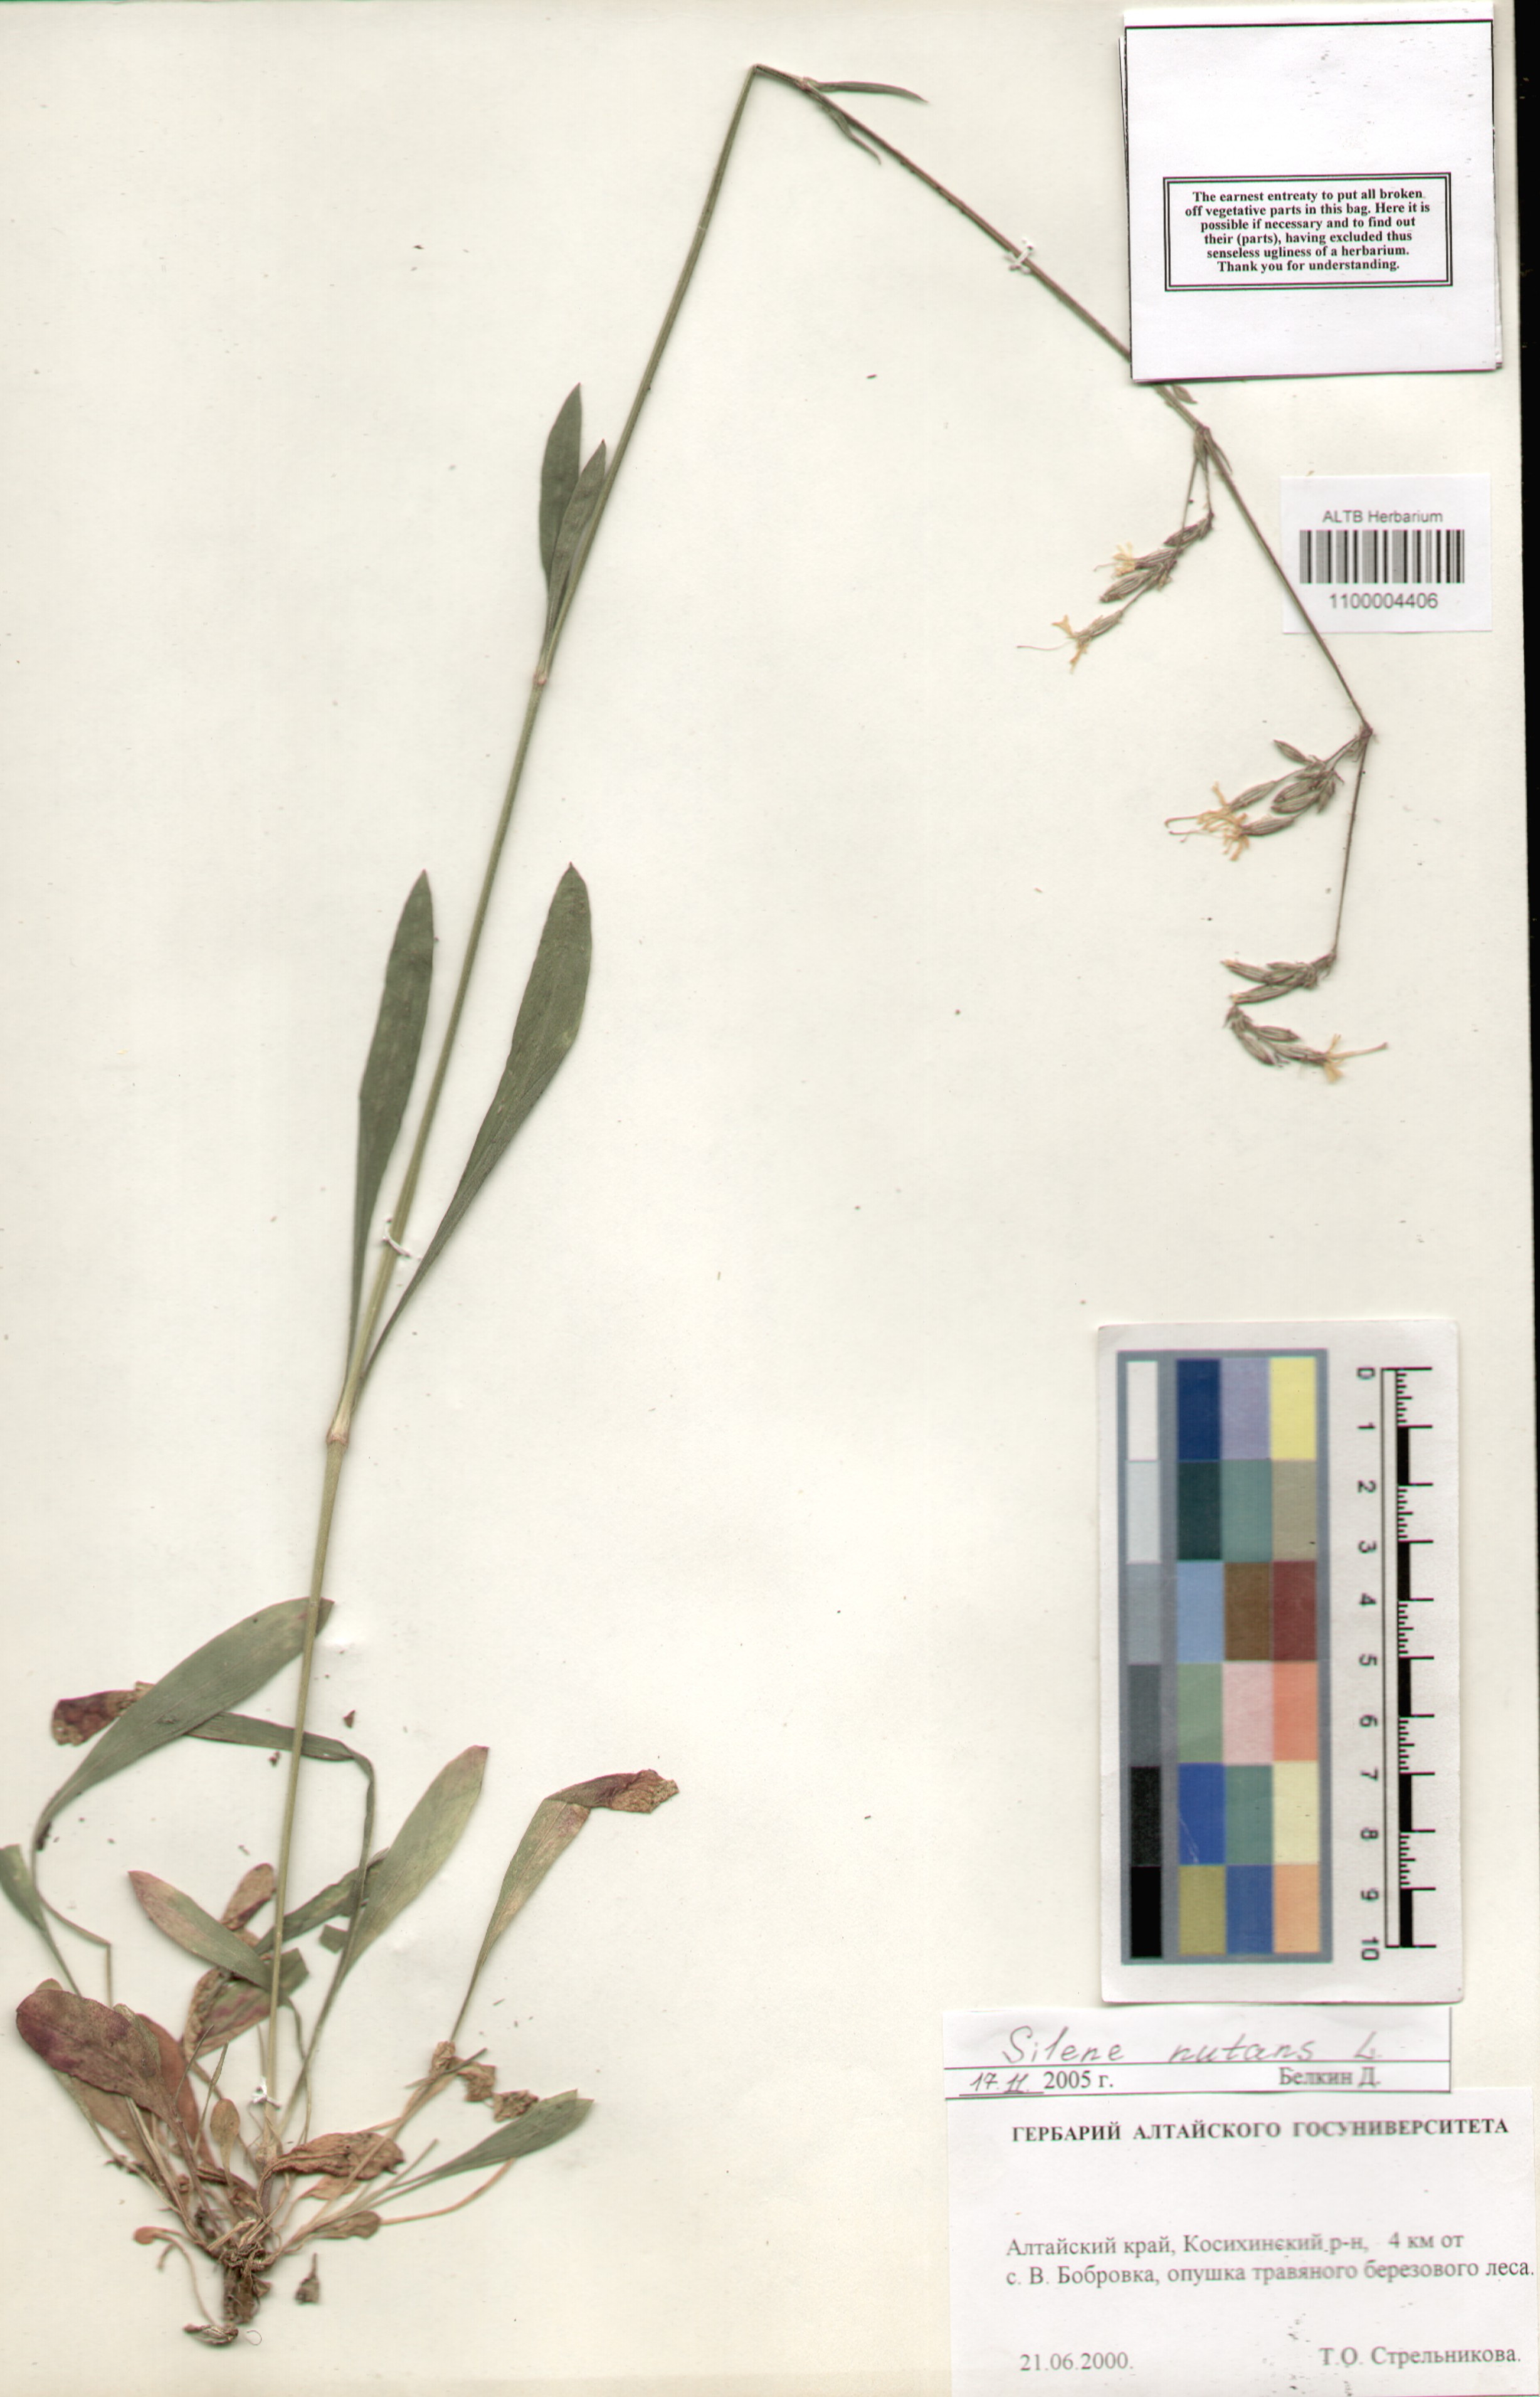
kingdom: Plantae
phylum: Tracheophyta
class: Magnoliopsida
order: Caryophyllales
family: Caryophyllaceae
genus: Silene
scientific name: Silene nutans
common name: Nottingham catchfly
